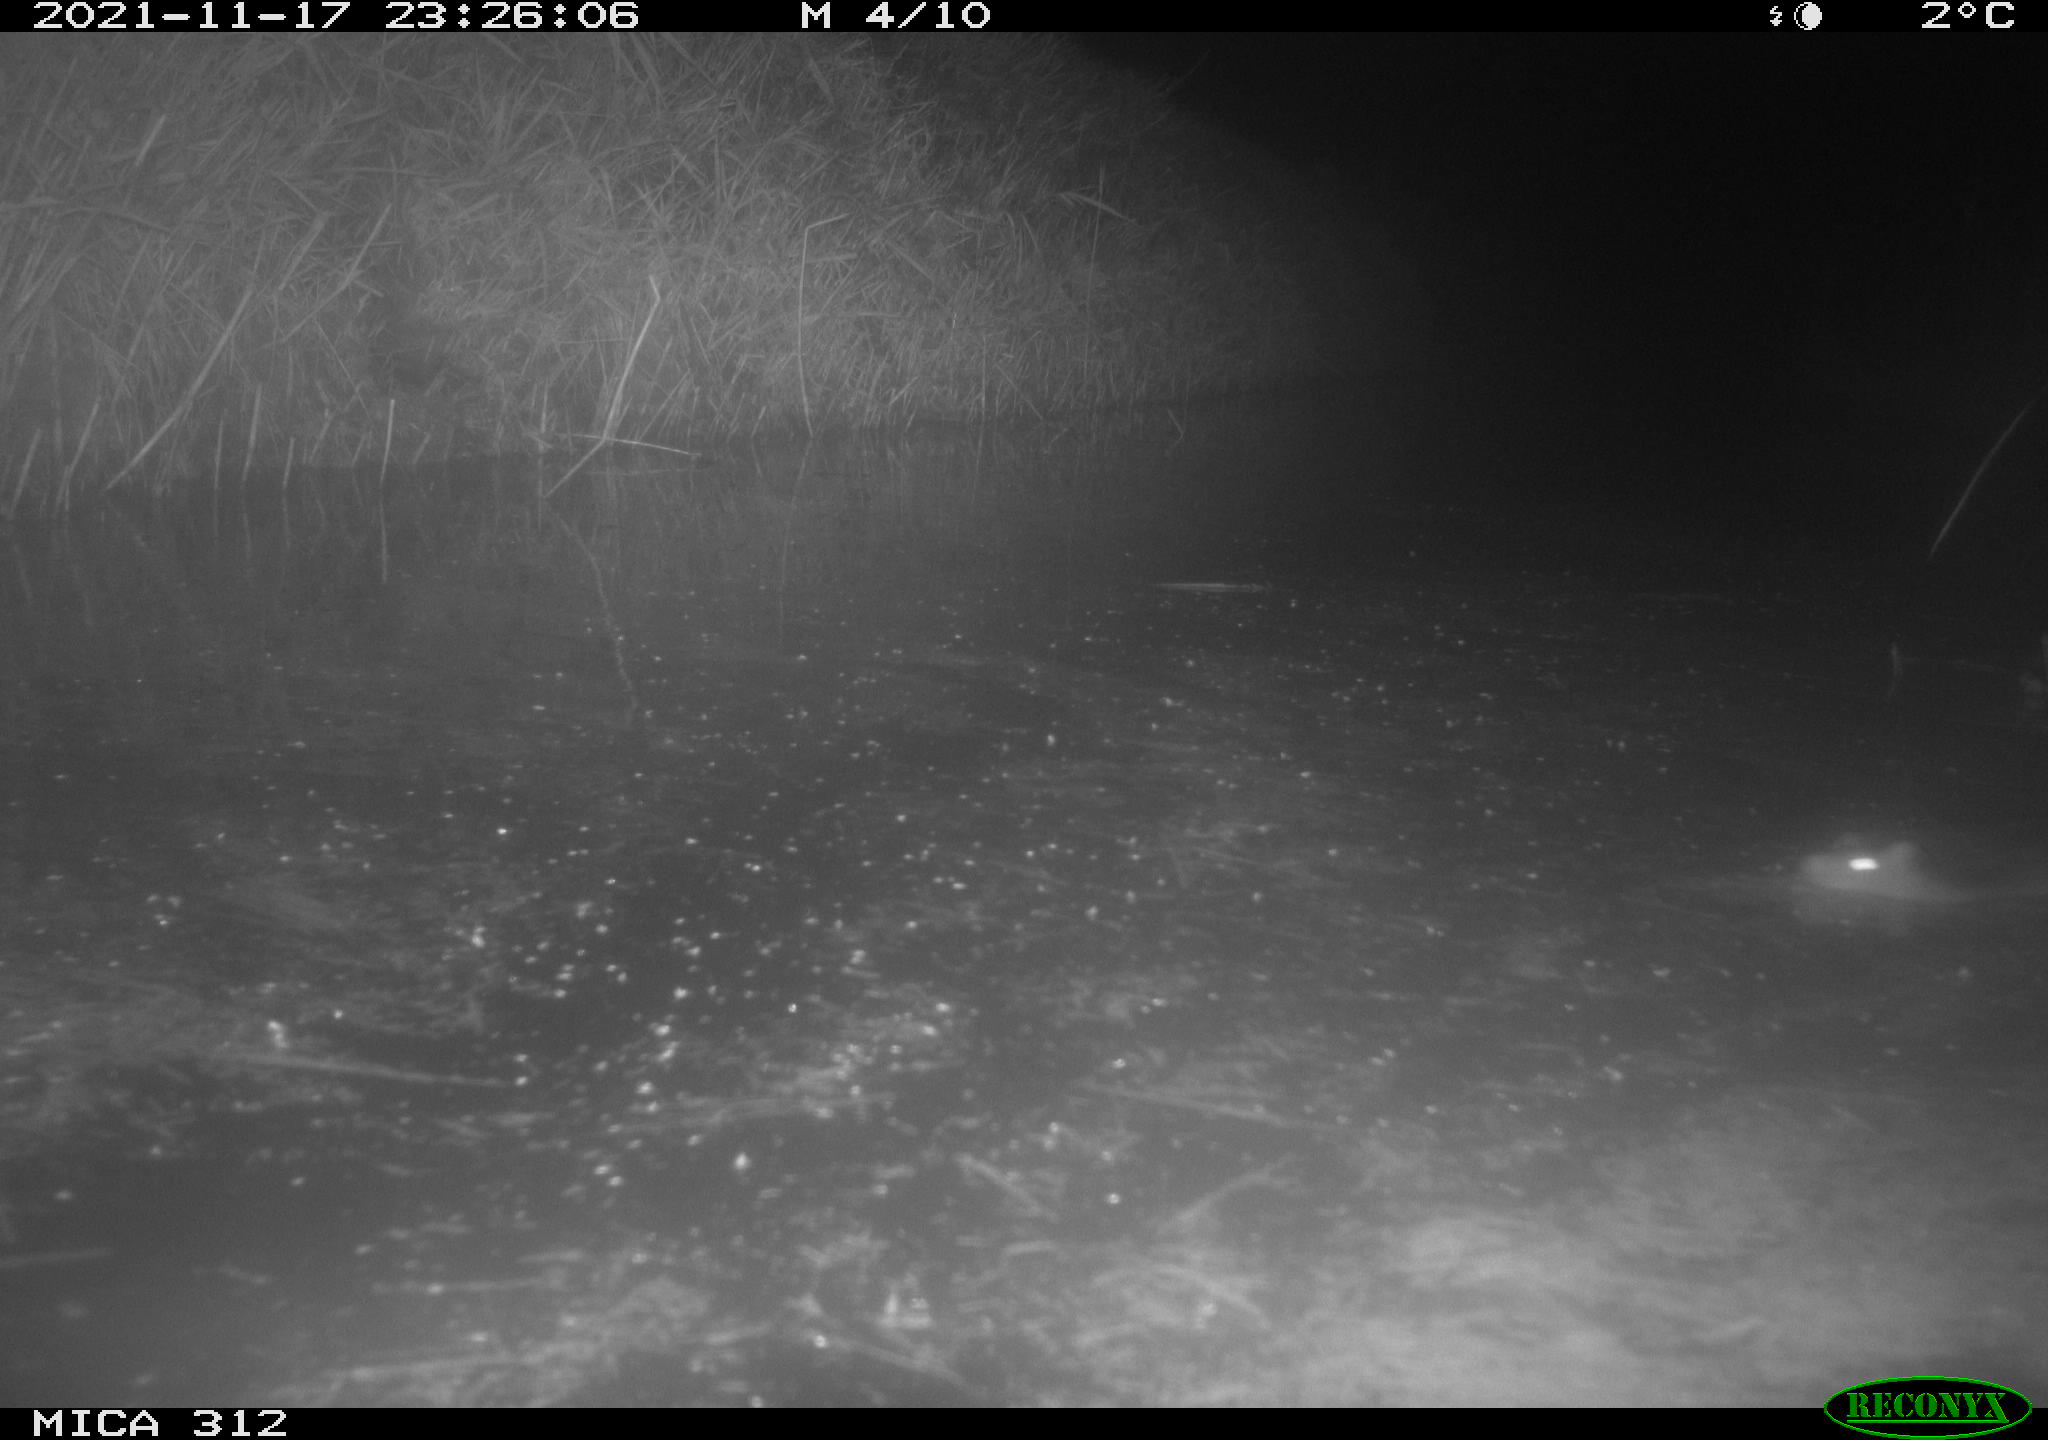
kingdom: Animalia
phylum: Chordata
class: Mammalia
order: Rodentia
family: Muridae
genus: Rattus
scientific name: Rattus norvegicus
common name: Brown rat
